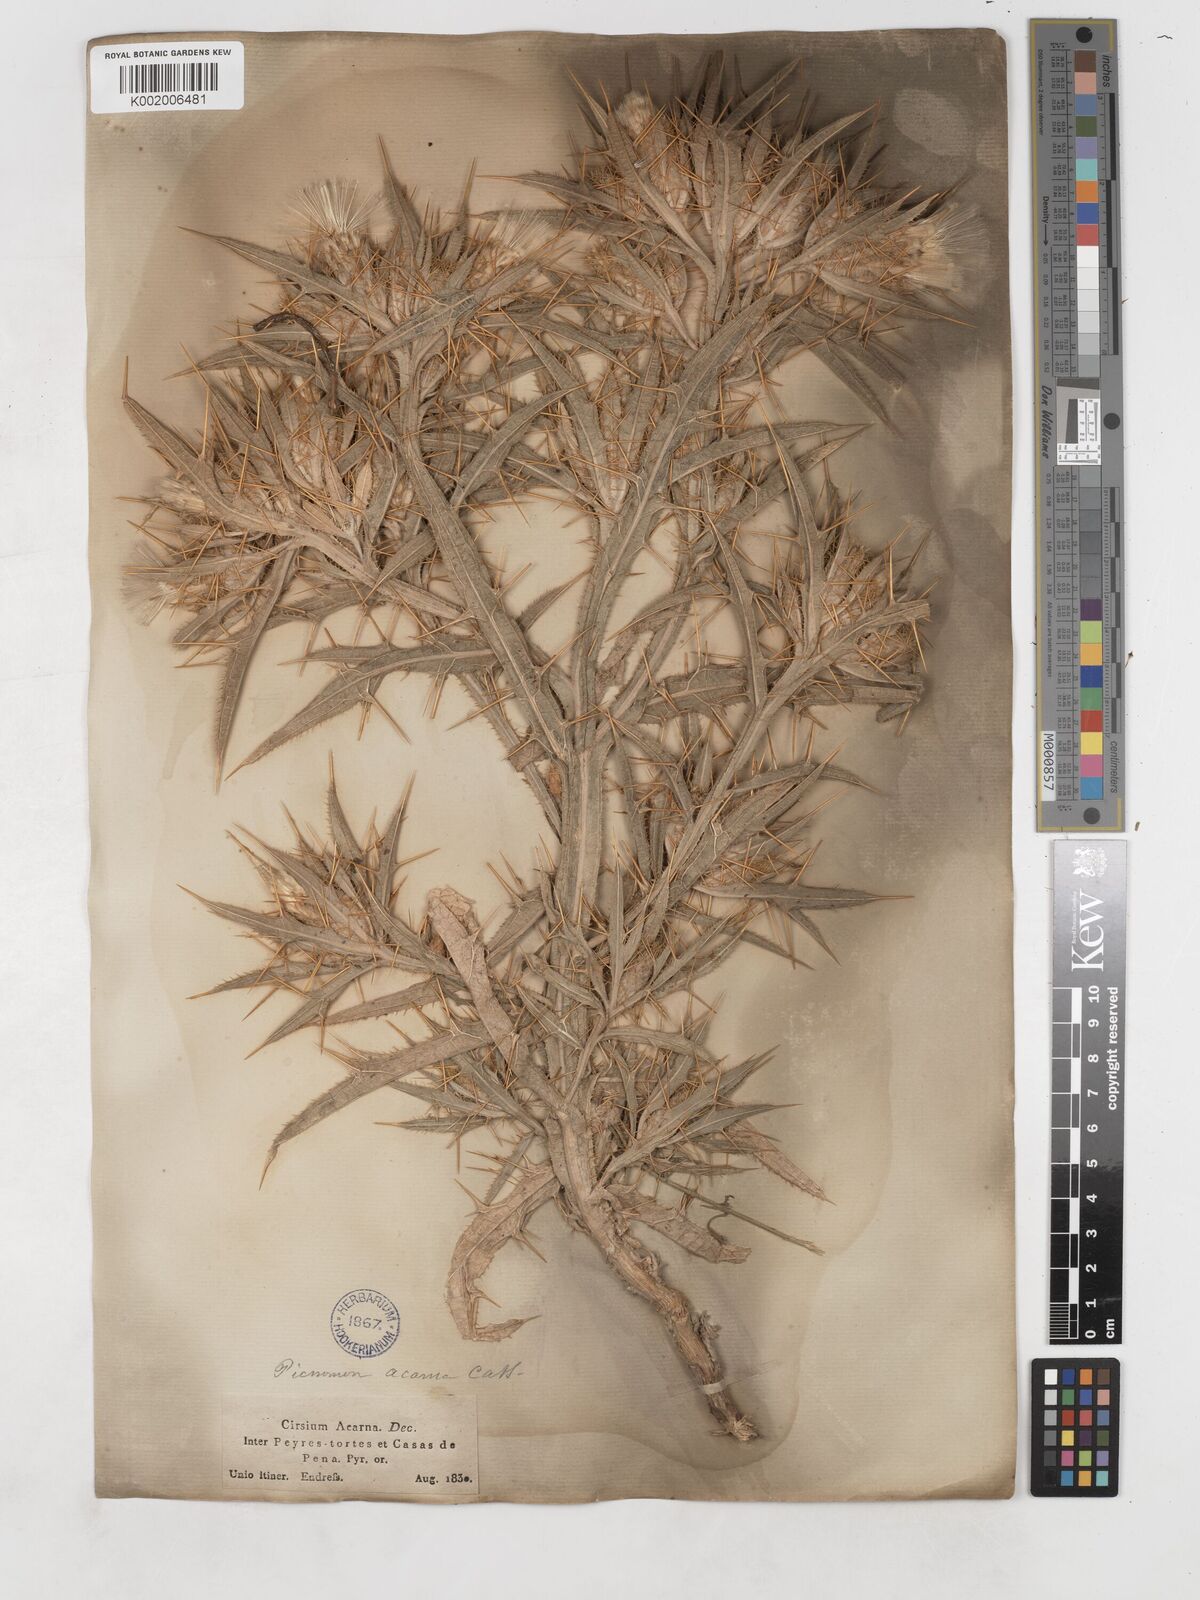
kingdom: Plantae
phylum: Tracheophyta
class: Magnoliopsida
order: Asterales
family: Asteraceae
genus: Picnomon
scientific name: Picnomon acarna
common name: Soldier thistle
